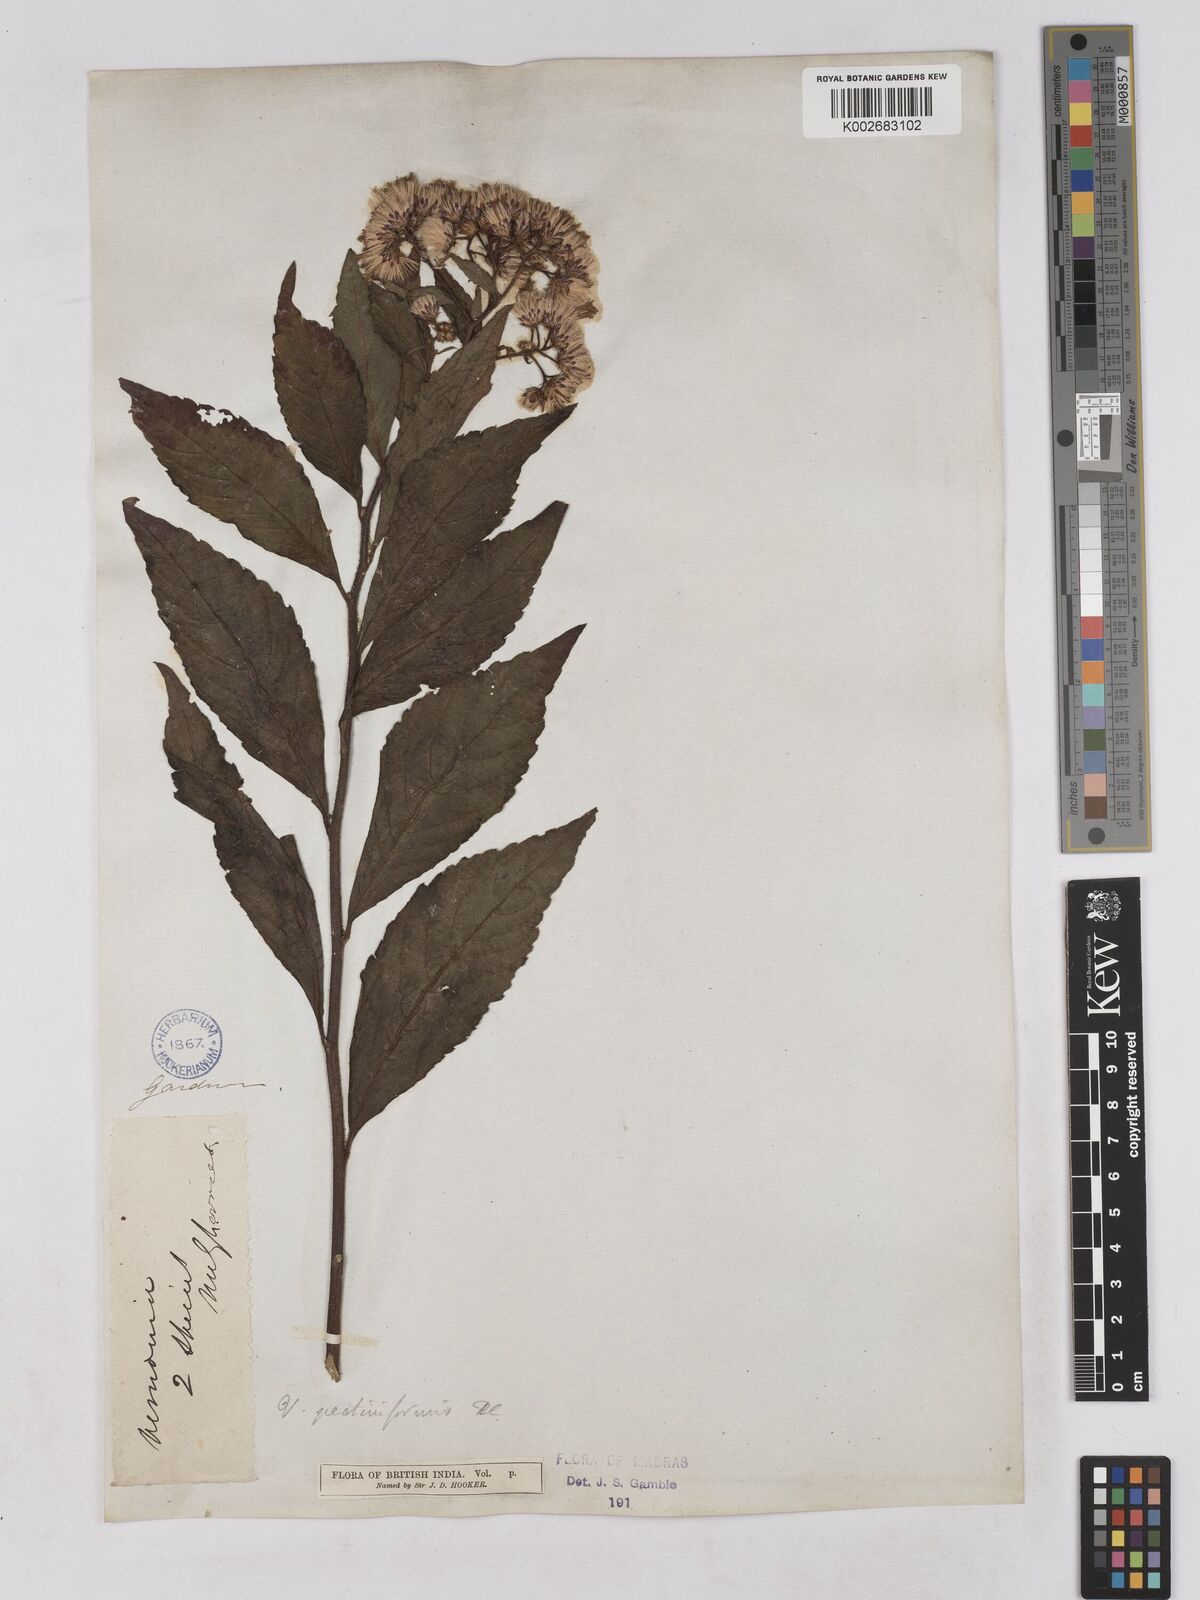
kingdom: Plantae
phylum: Tracheophyta
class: Magnoliopsida
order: Asterales
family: Asteraceae
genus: Gymnanthemum
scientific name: Gymnanthemum pectiniforme
